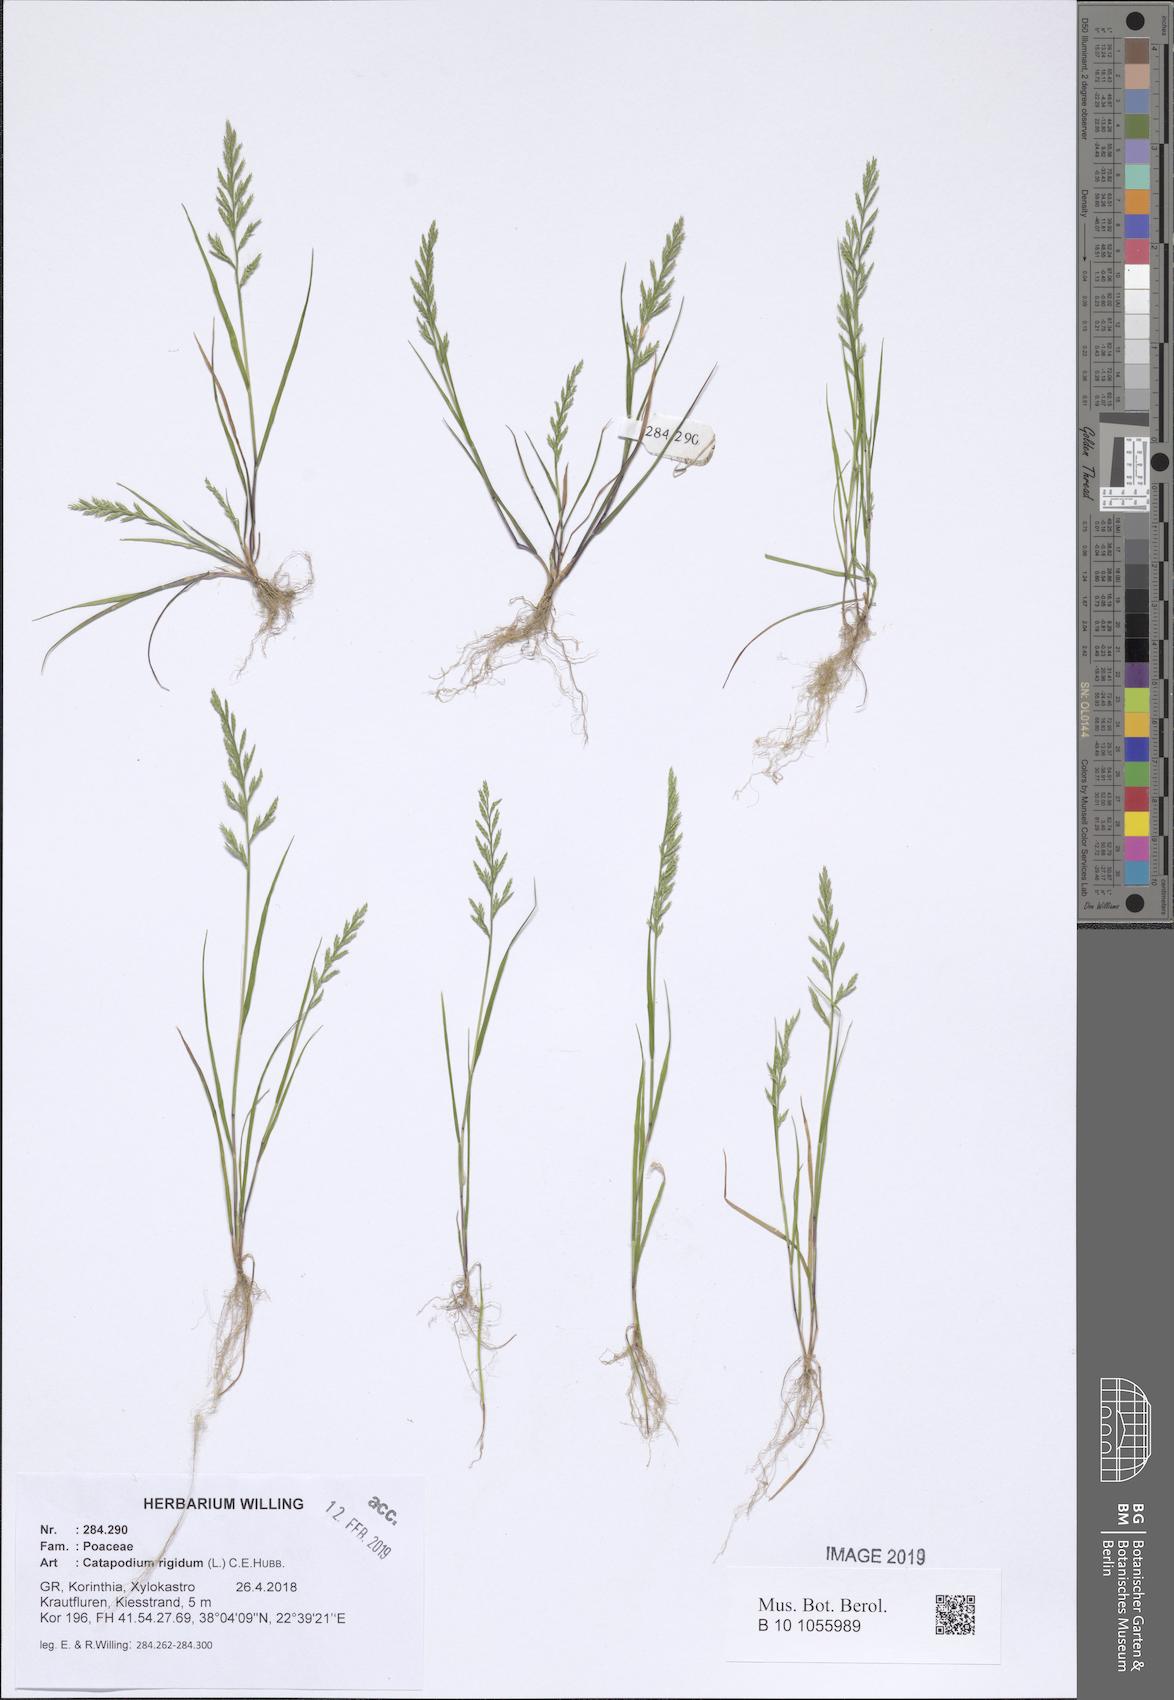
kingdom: Plantae
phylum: Tracheophyta
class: Liliopsida
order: Poales
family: Poaceae
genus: Catapodium
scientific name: Catapodium rigidum
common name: Fern-grass
